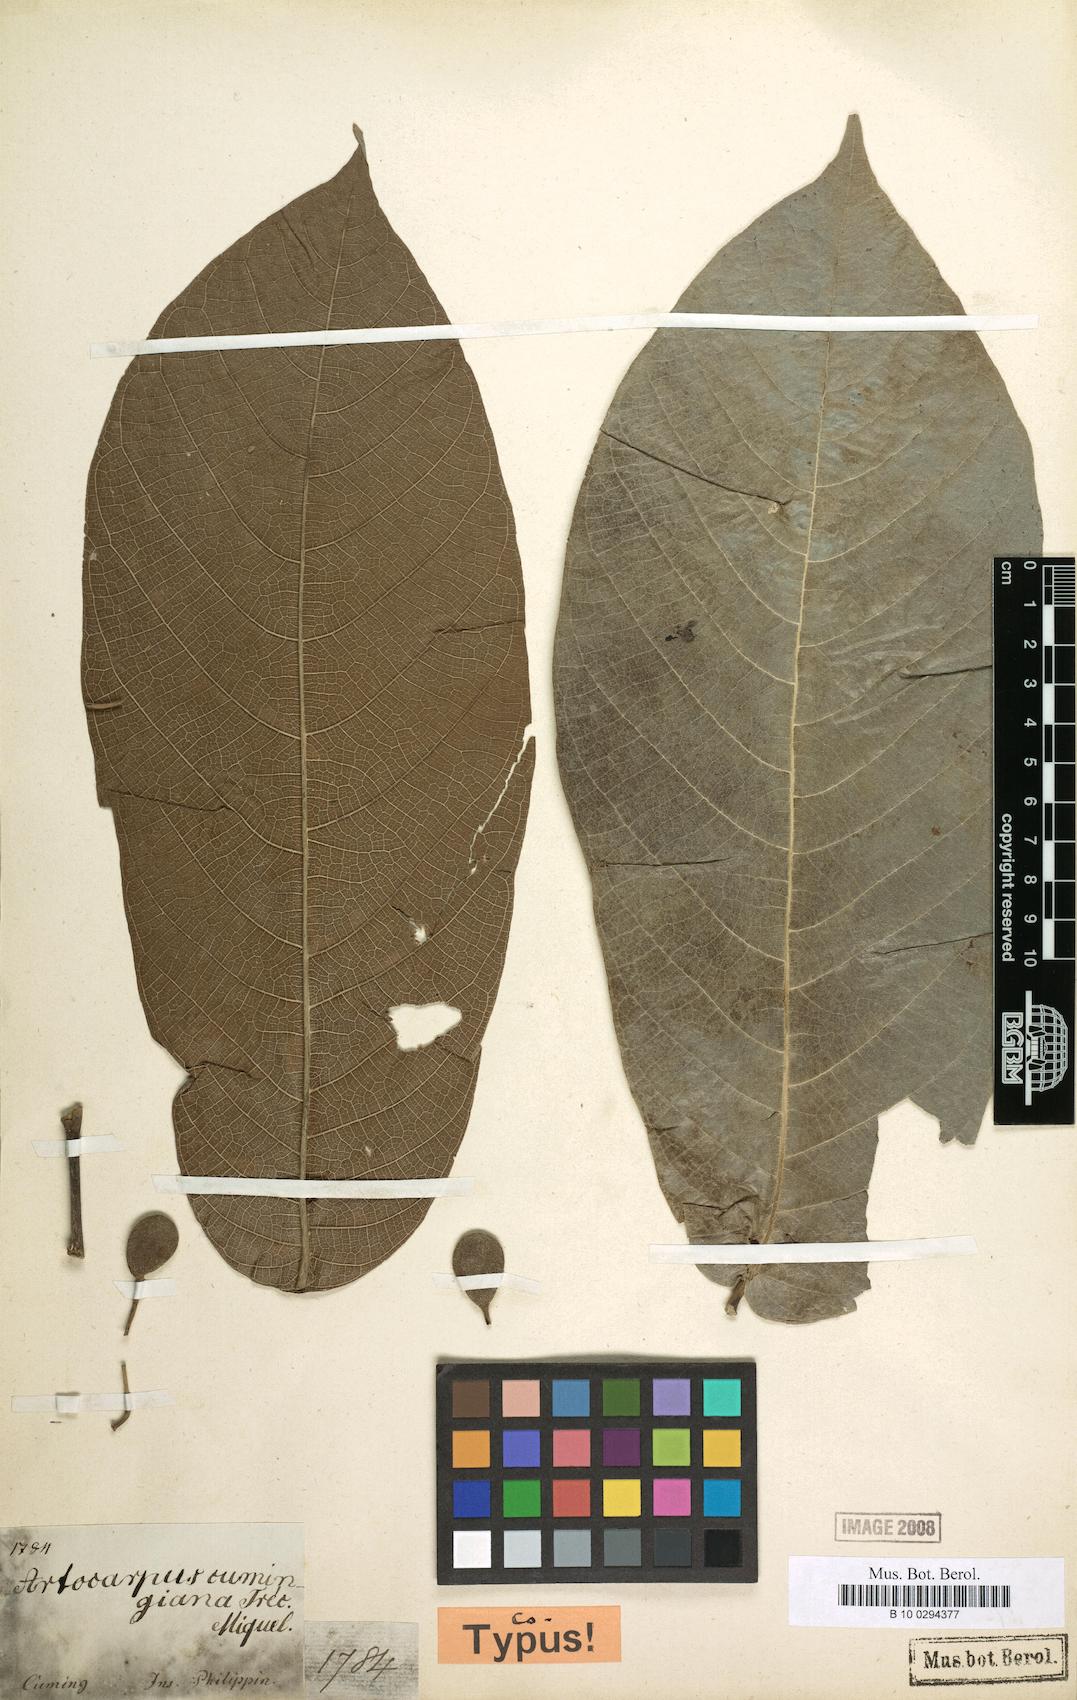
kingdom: Plantae
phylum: Tracheophyta
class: Magnoliopsida
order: Rosales
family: Moraceae
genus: Artocarpus
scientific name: Artocarpus lacucha
